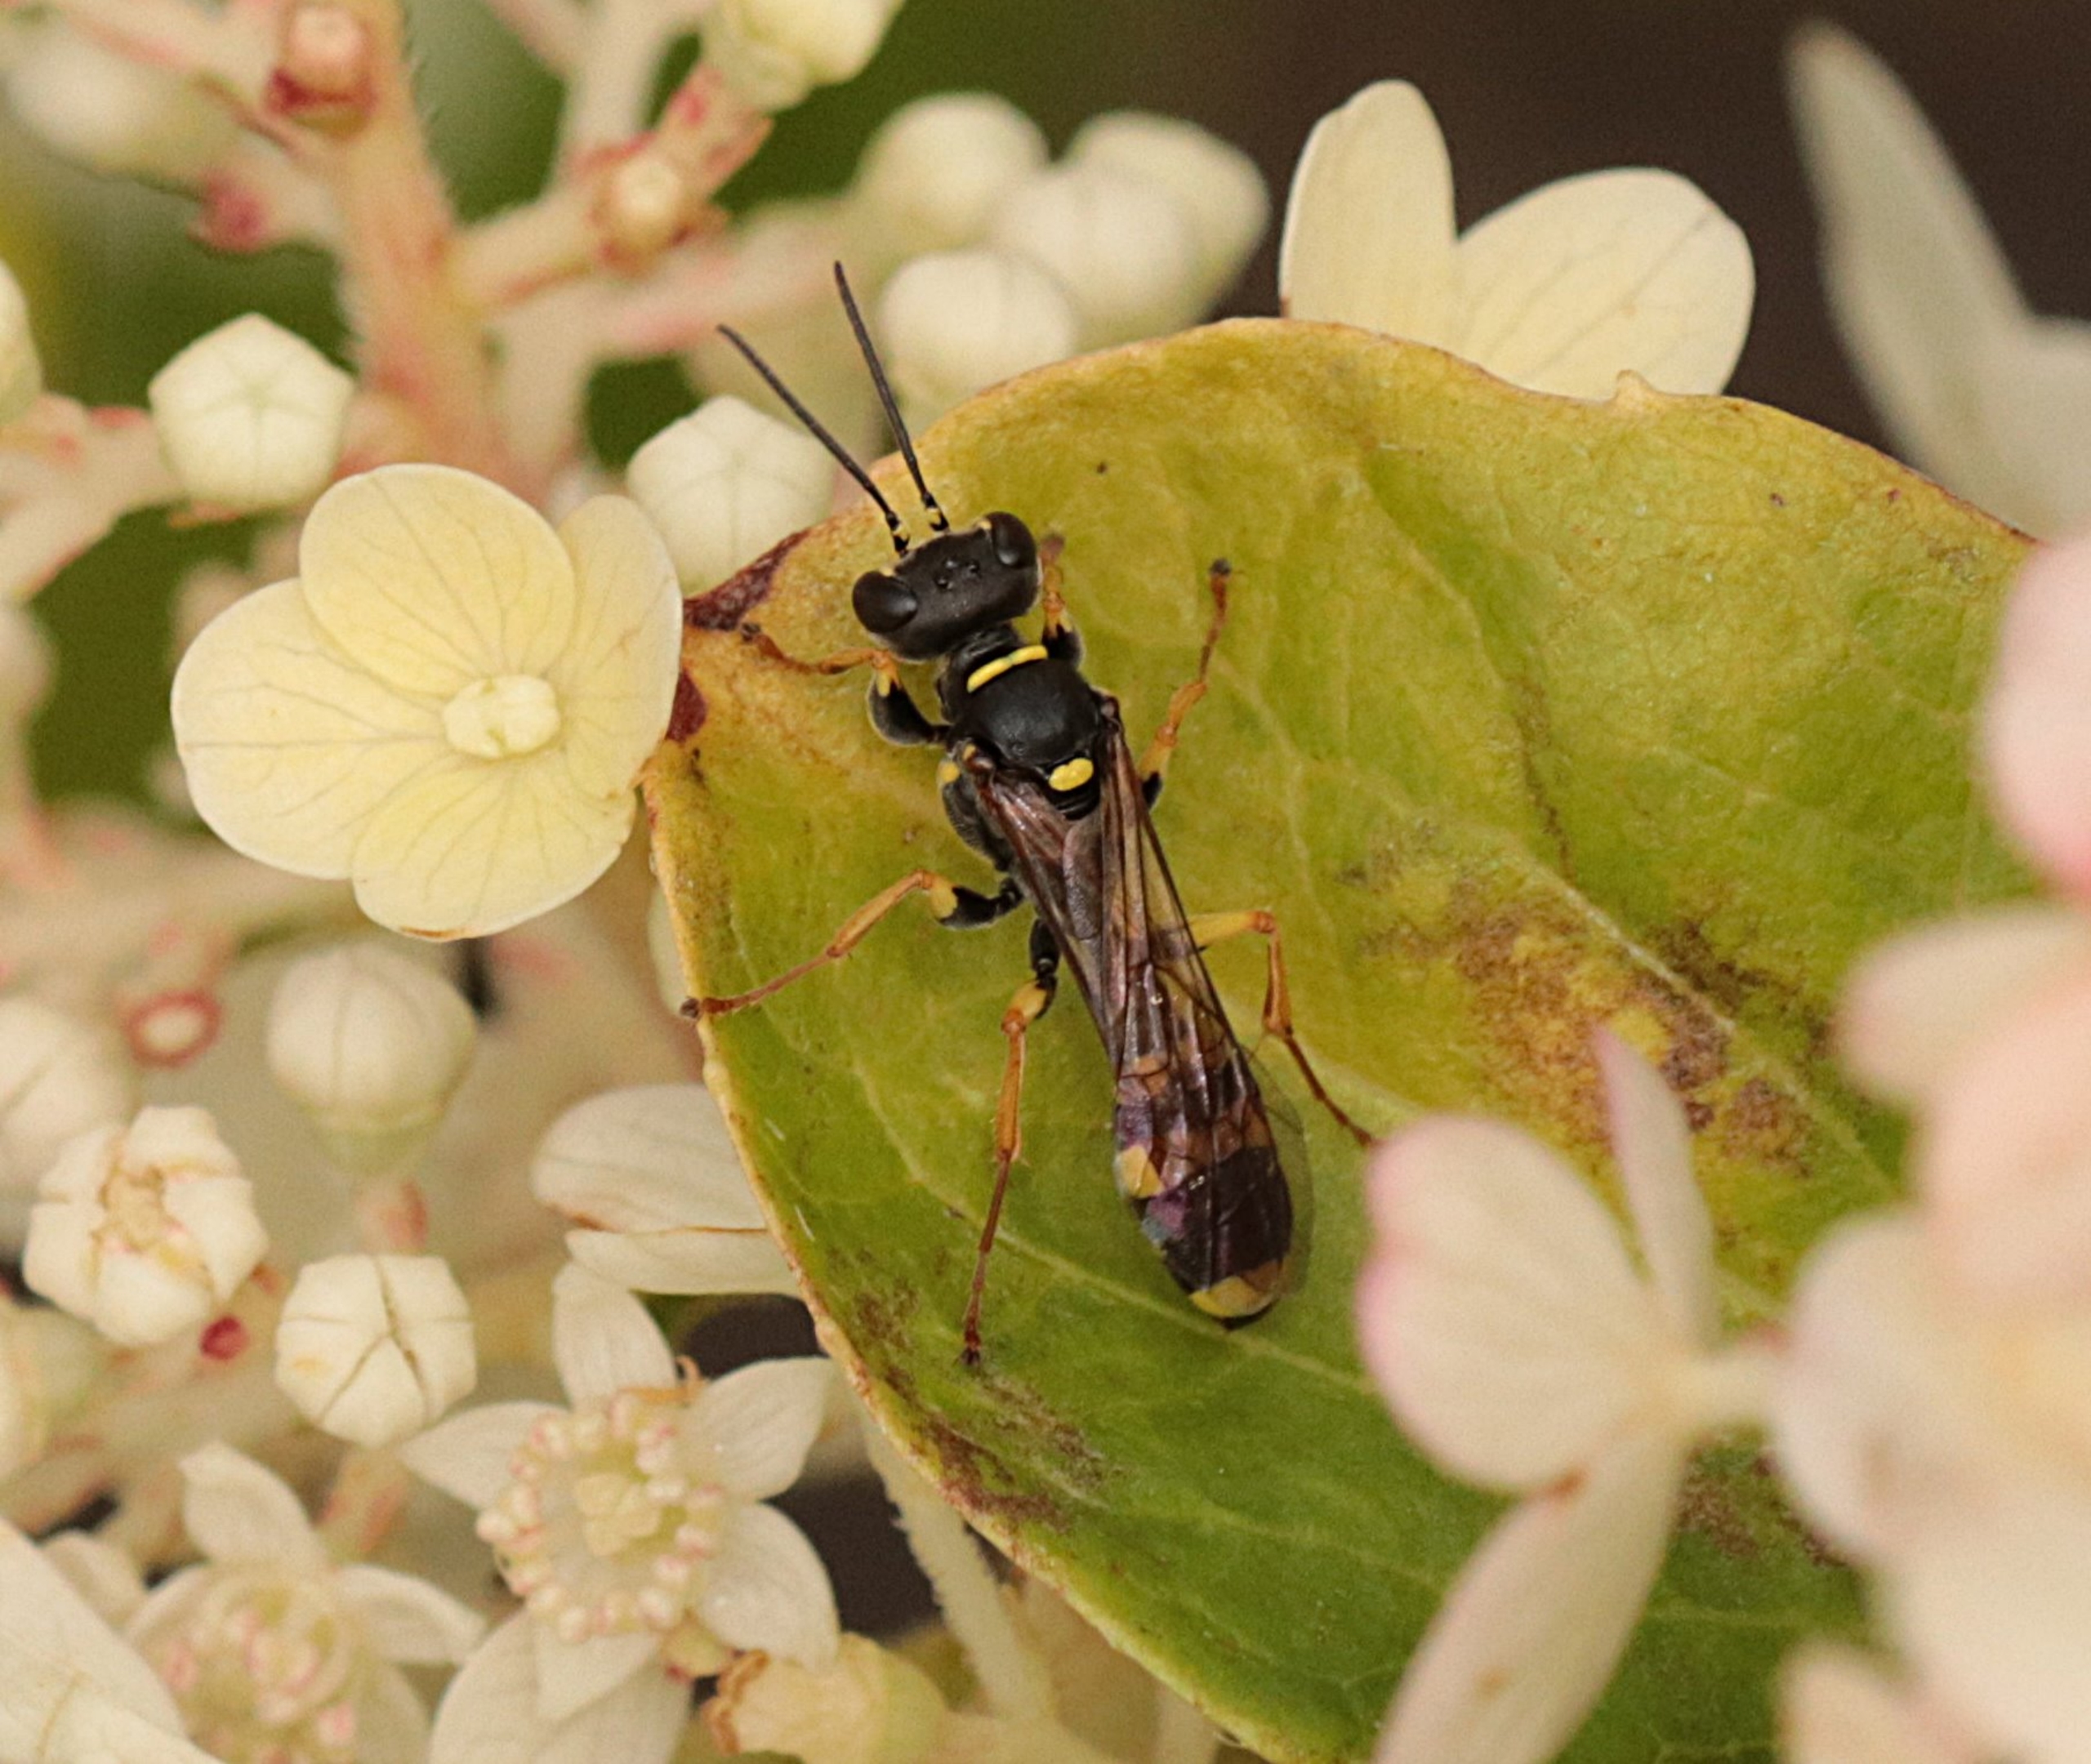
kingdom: Animalia
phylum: Arthropoda
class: Insecta
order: Hymenoptera
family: Crabronidae
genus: Mellinus
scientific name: Mellinus arvensis
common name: Efterårsgravehveps
